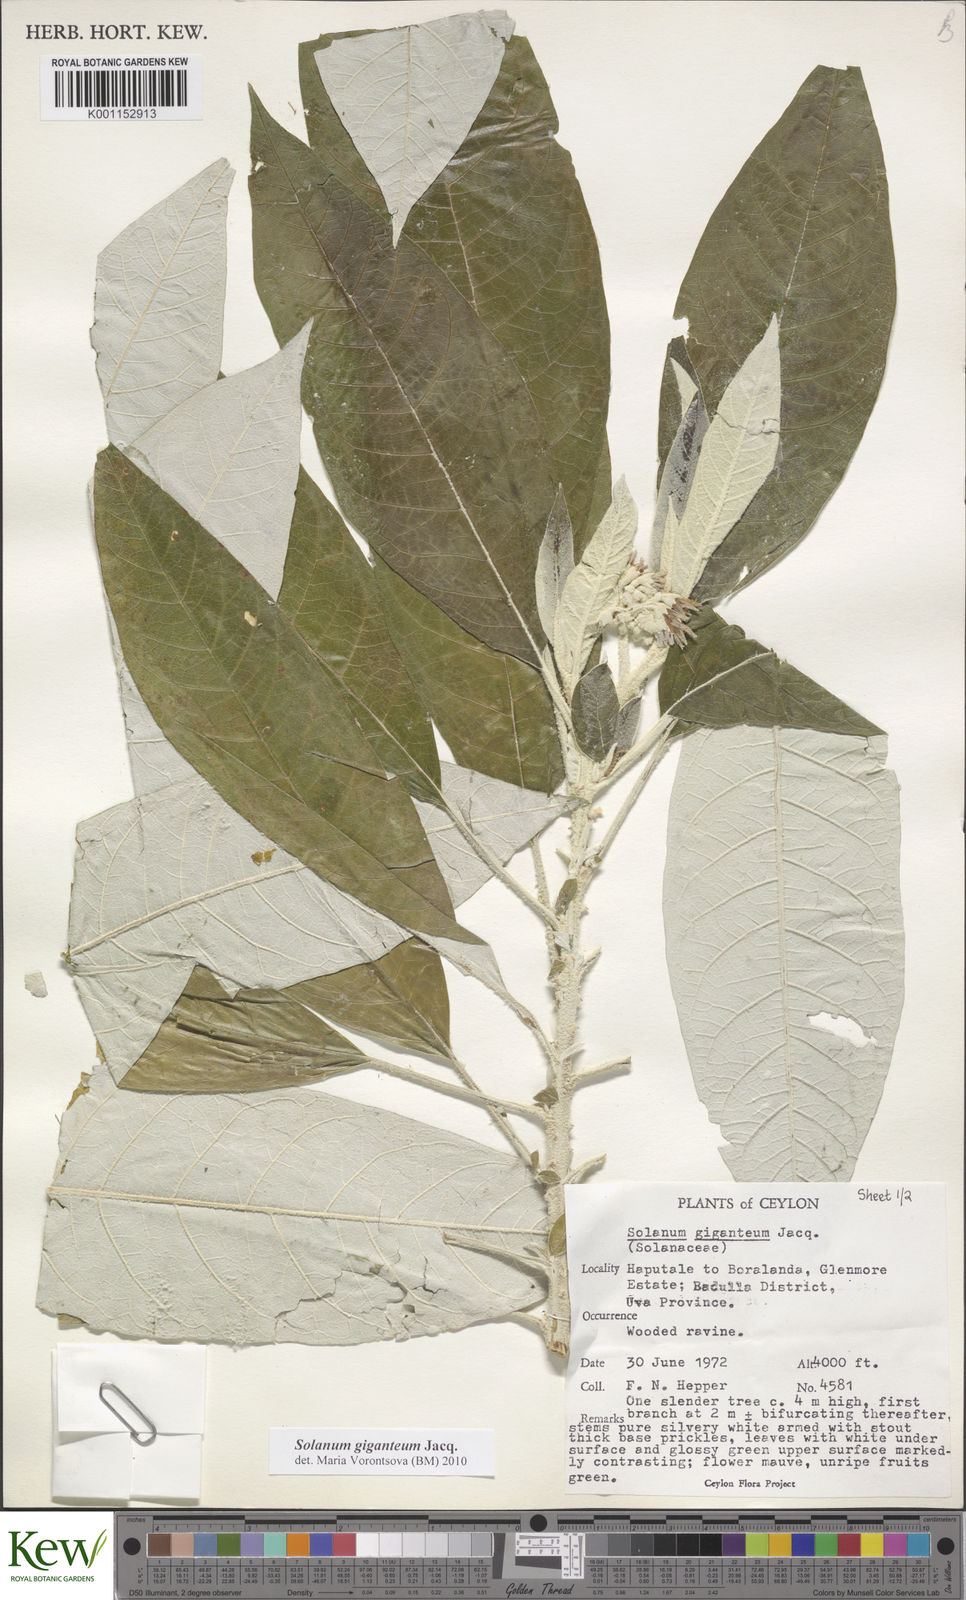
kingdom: Plantae
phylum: Tracheophyta
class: Magnoliopsida
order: Solanales
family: Solanaceae
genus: Solanum
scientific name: Solanum giganteum
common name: Healing-leaf-tree
